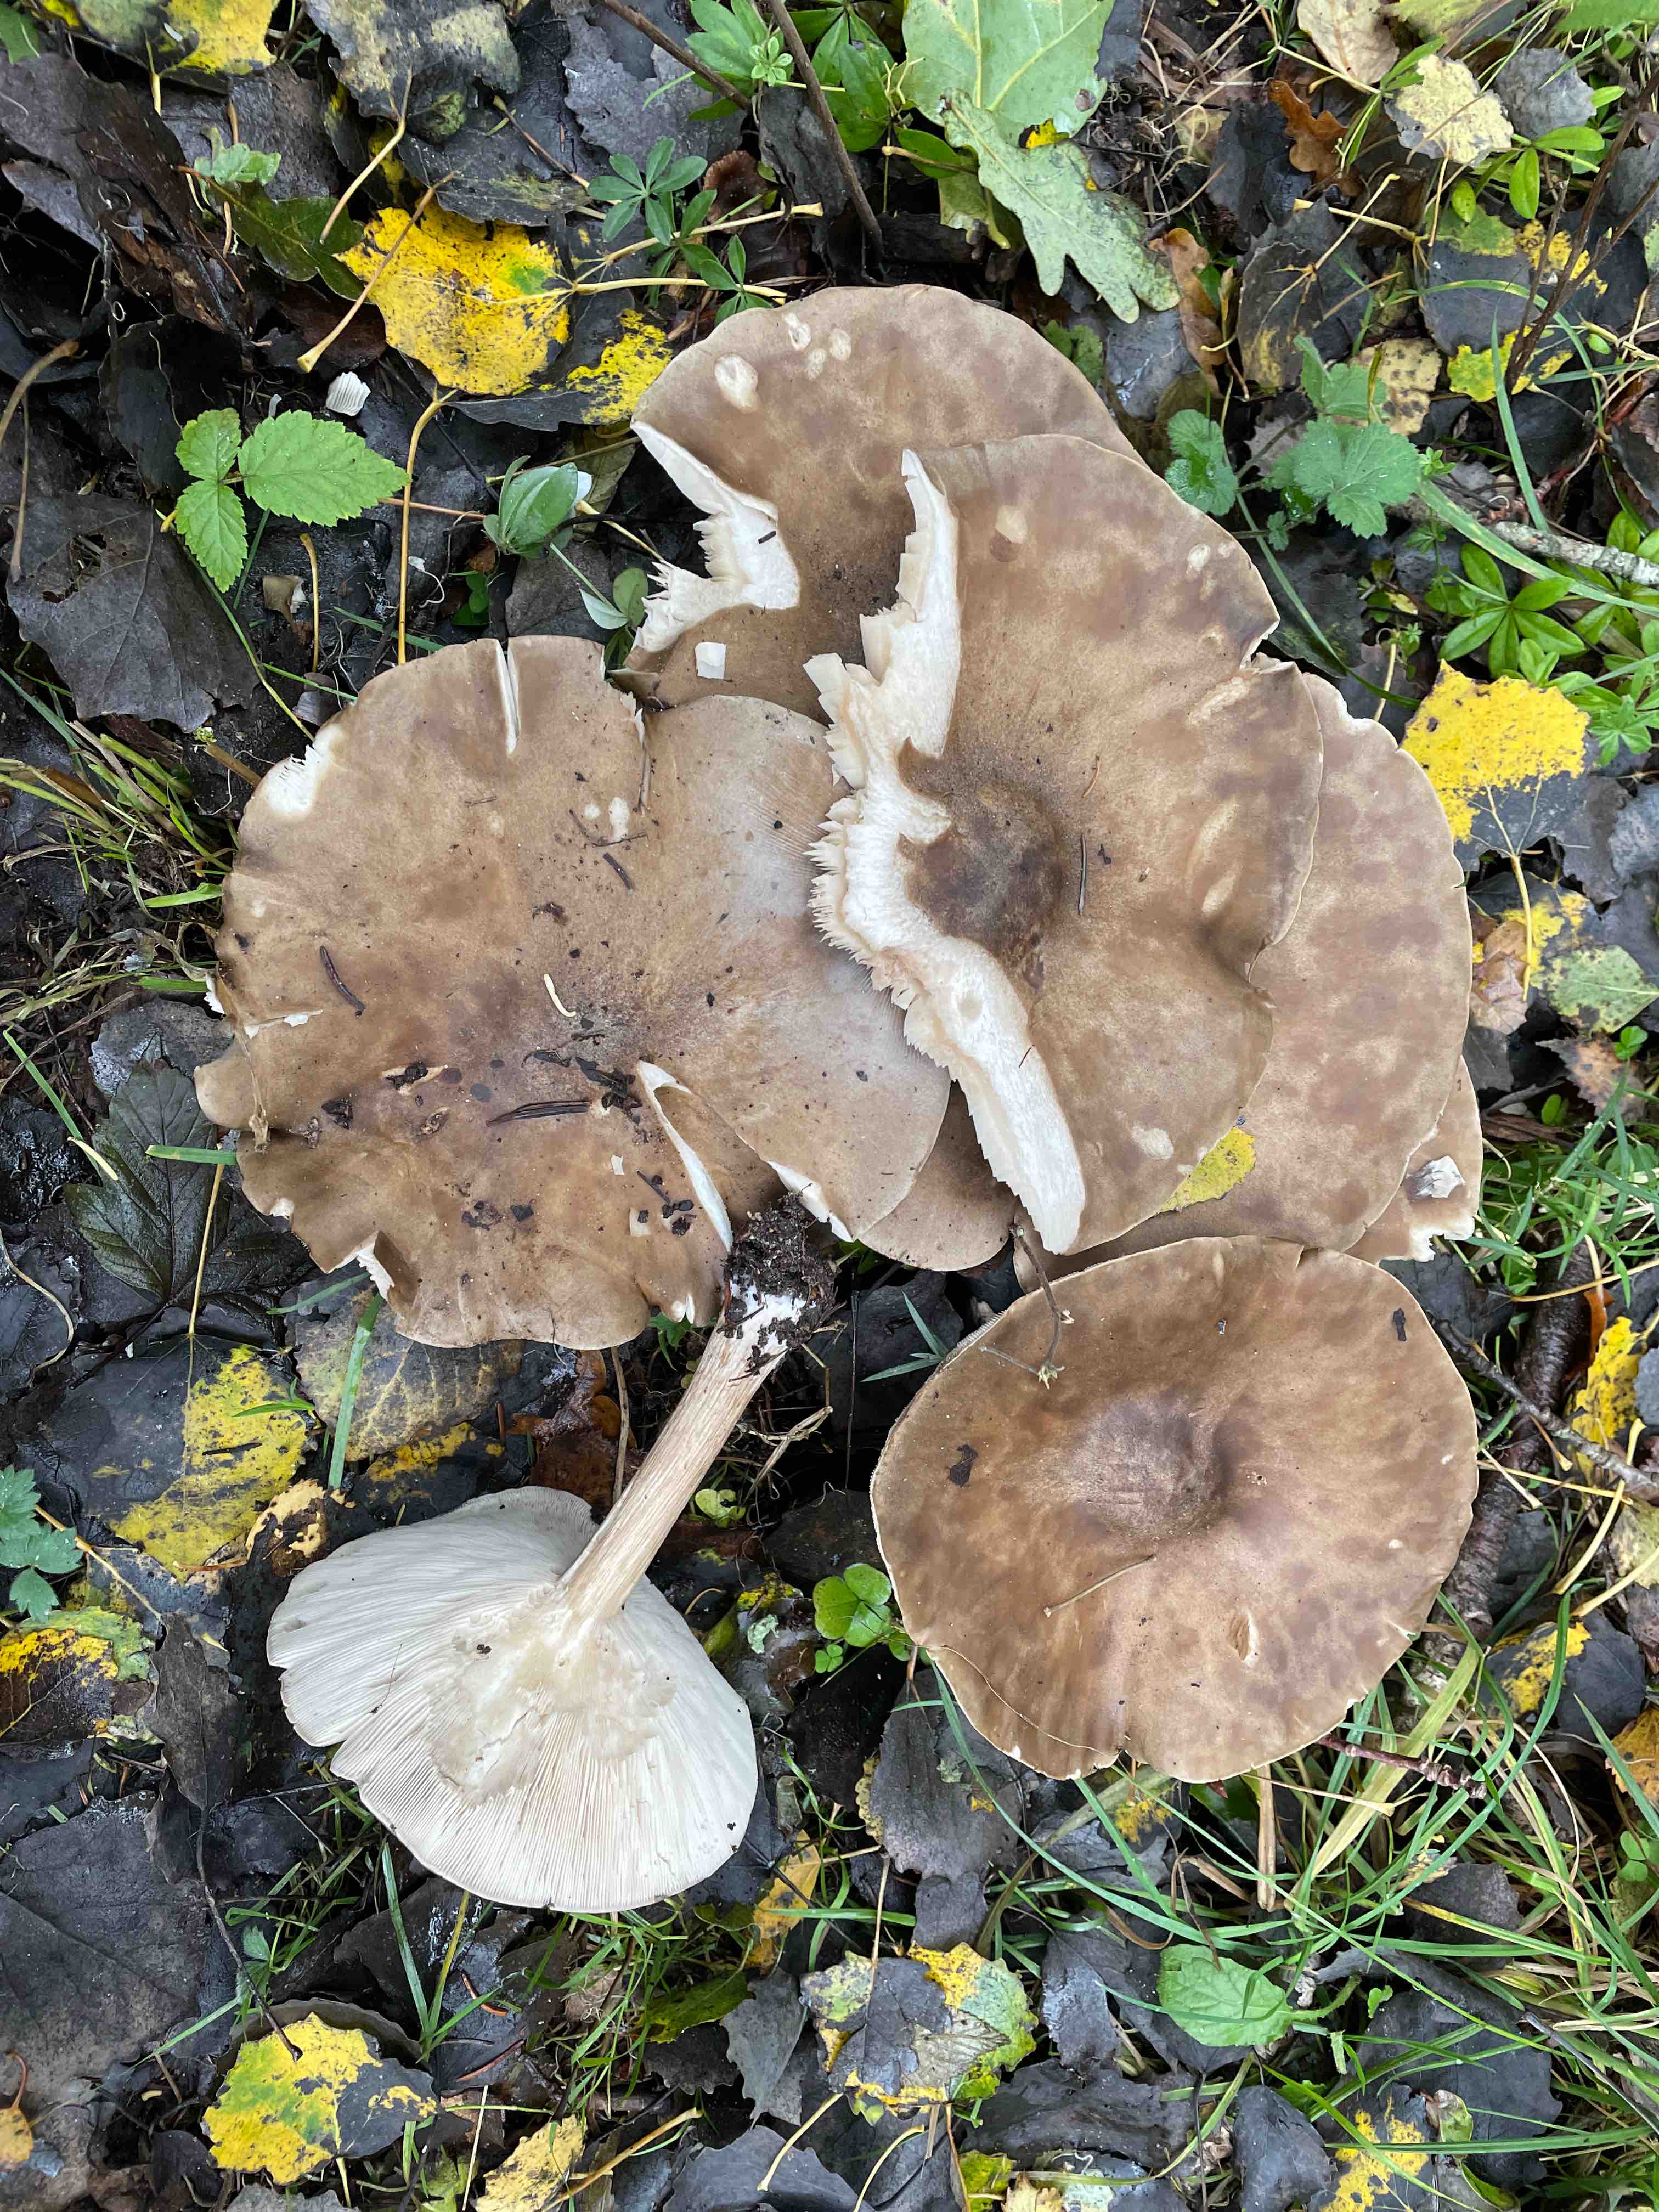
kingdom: Fungi
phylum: Basidiomycota
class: Agaricomycetes
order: Agaricales
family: Tricholomataceae
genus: Melanoleuca
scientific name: Melanoleuca grammopodia
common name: stribestokket munkehat
